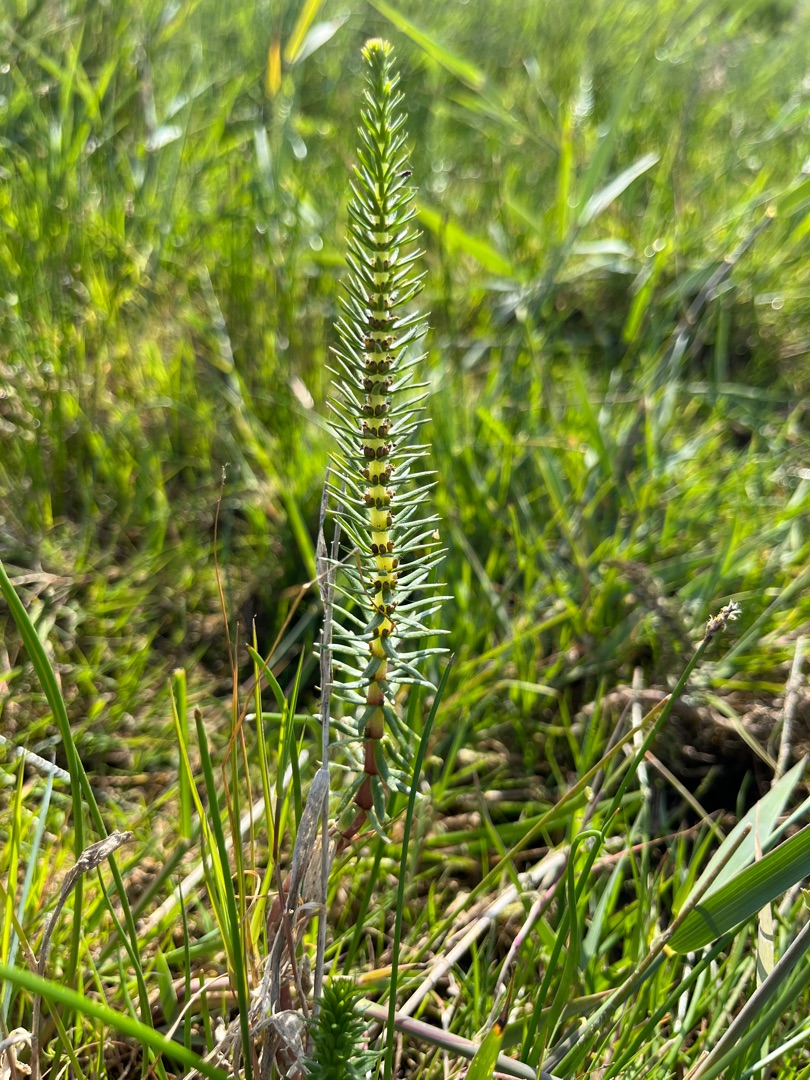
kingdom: Plantae
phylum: Tracheophyta
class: Magnoliopsida
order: Lamiales
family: Plantaginaceae
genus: Hippuris
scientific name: Hippuris vulgaris
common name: Vandspir
